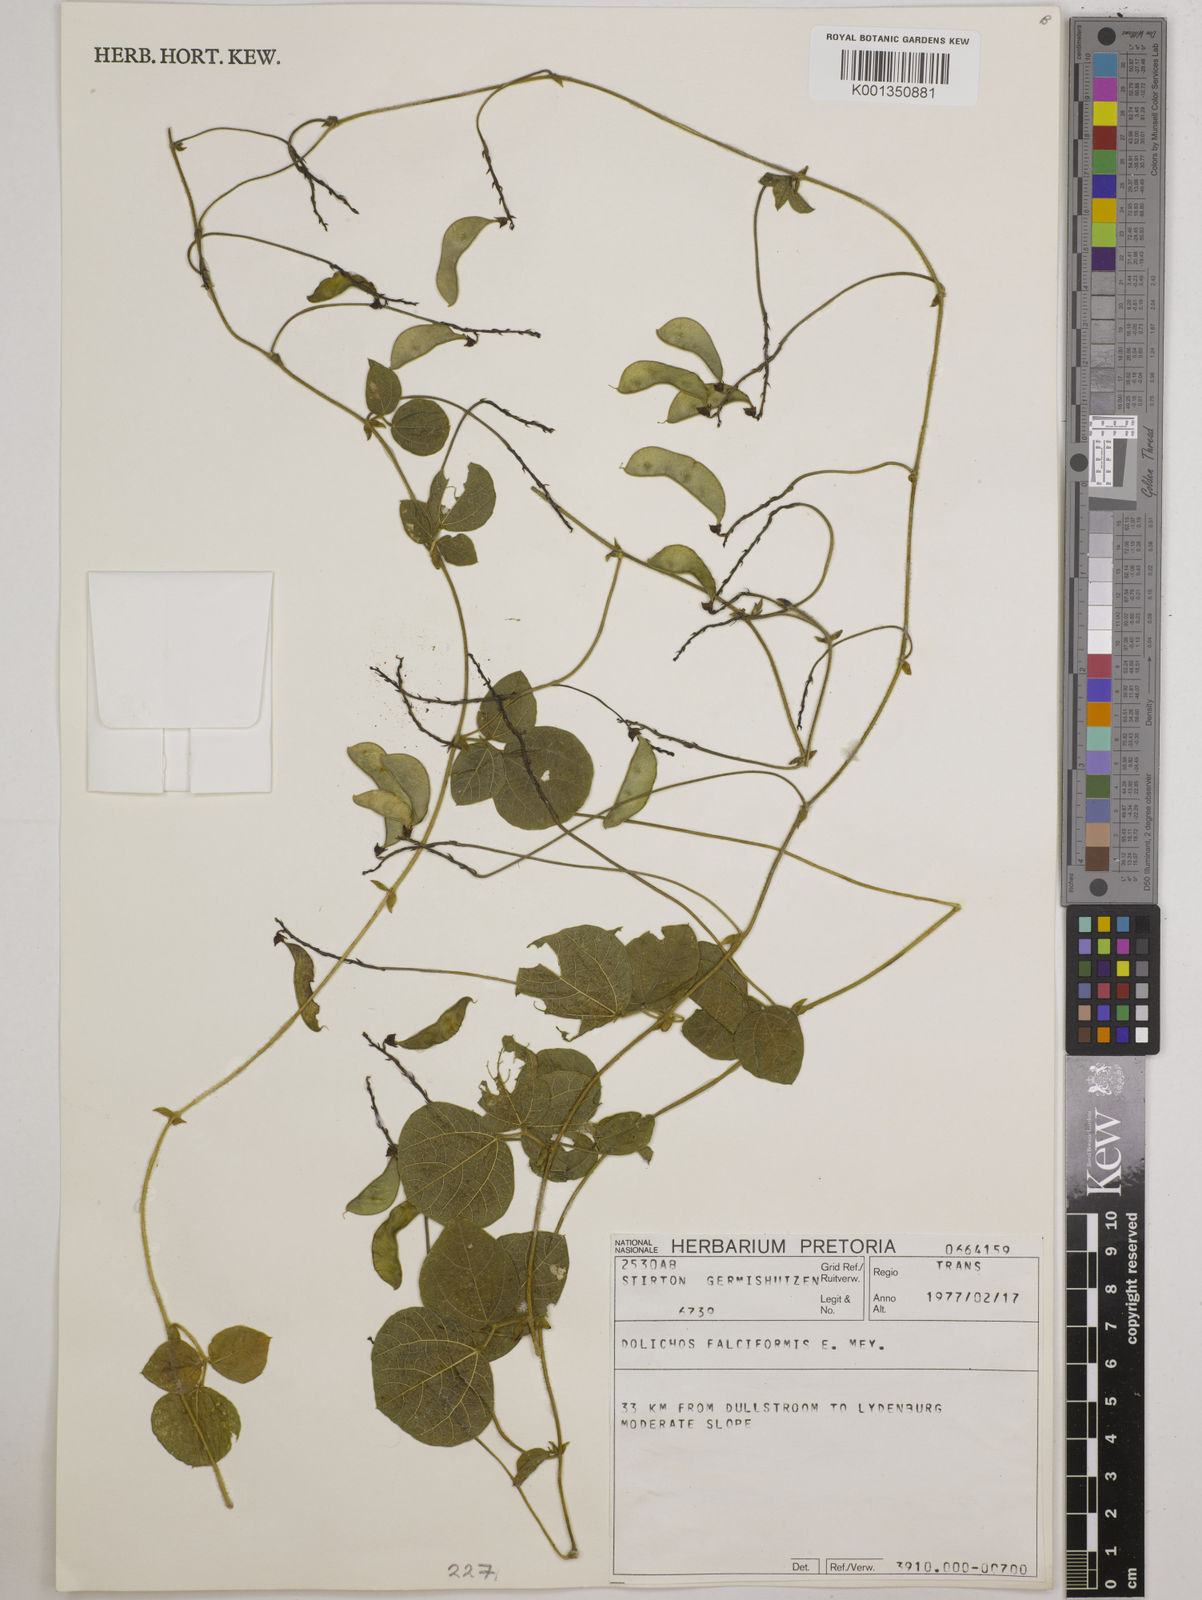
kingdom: Plantae
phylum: Tracheophyta
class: Magnoliopsida
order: Fabales
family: Fabaceae
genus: Dolichos
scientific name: Dolichos falciformis
